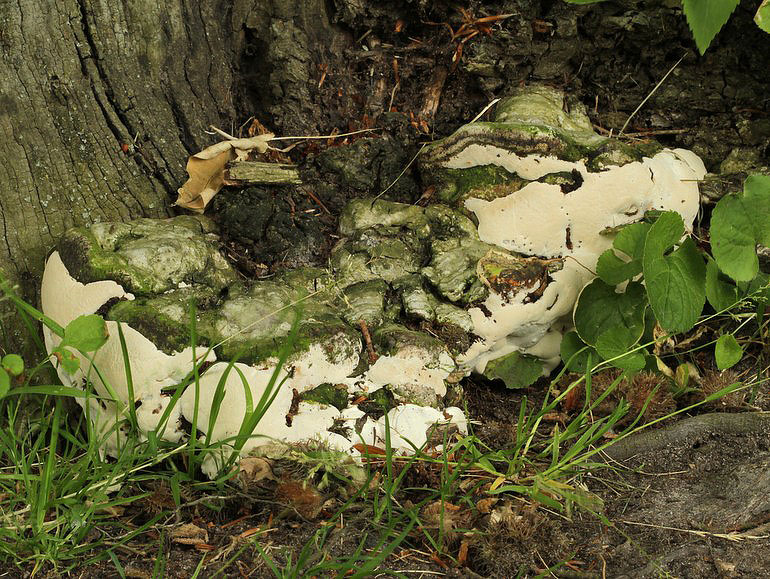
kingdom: Fungi
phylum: Basidiomycota
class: Agaricomycetes
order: Polyporales
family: Polyporaceae
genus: Vanderbylia
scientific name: Vanderbylia fraxinea
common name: stor kanelporesvamp
